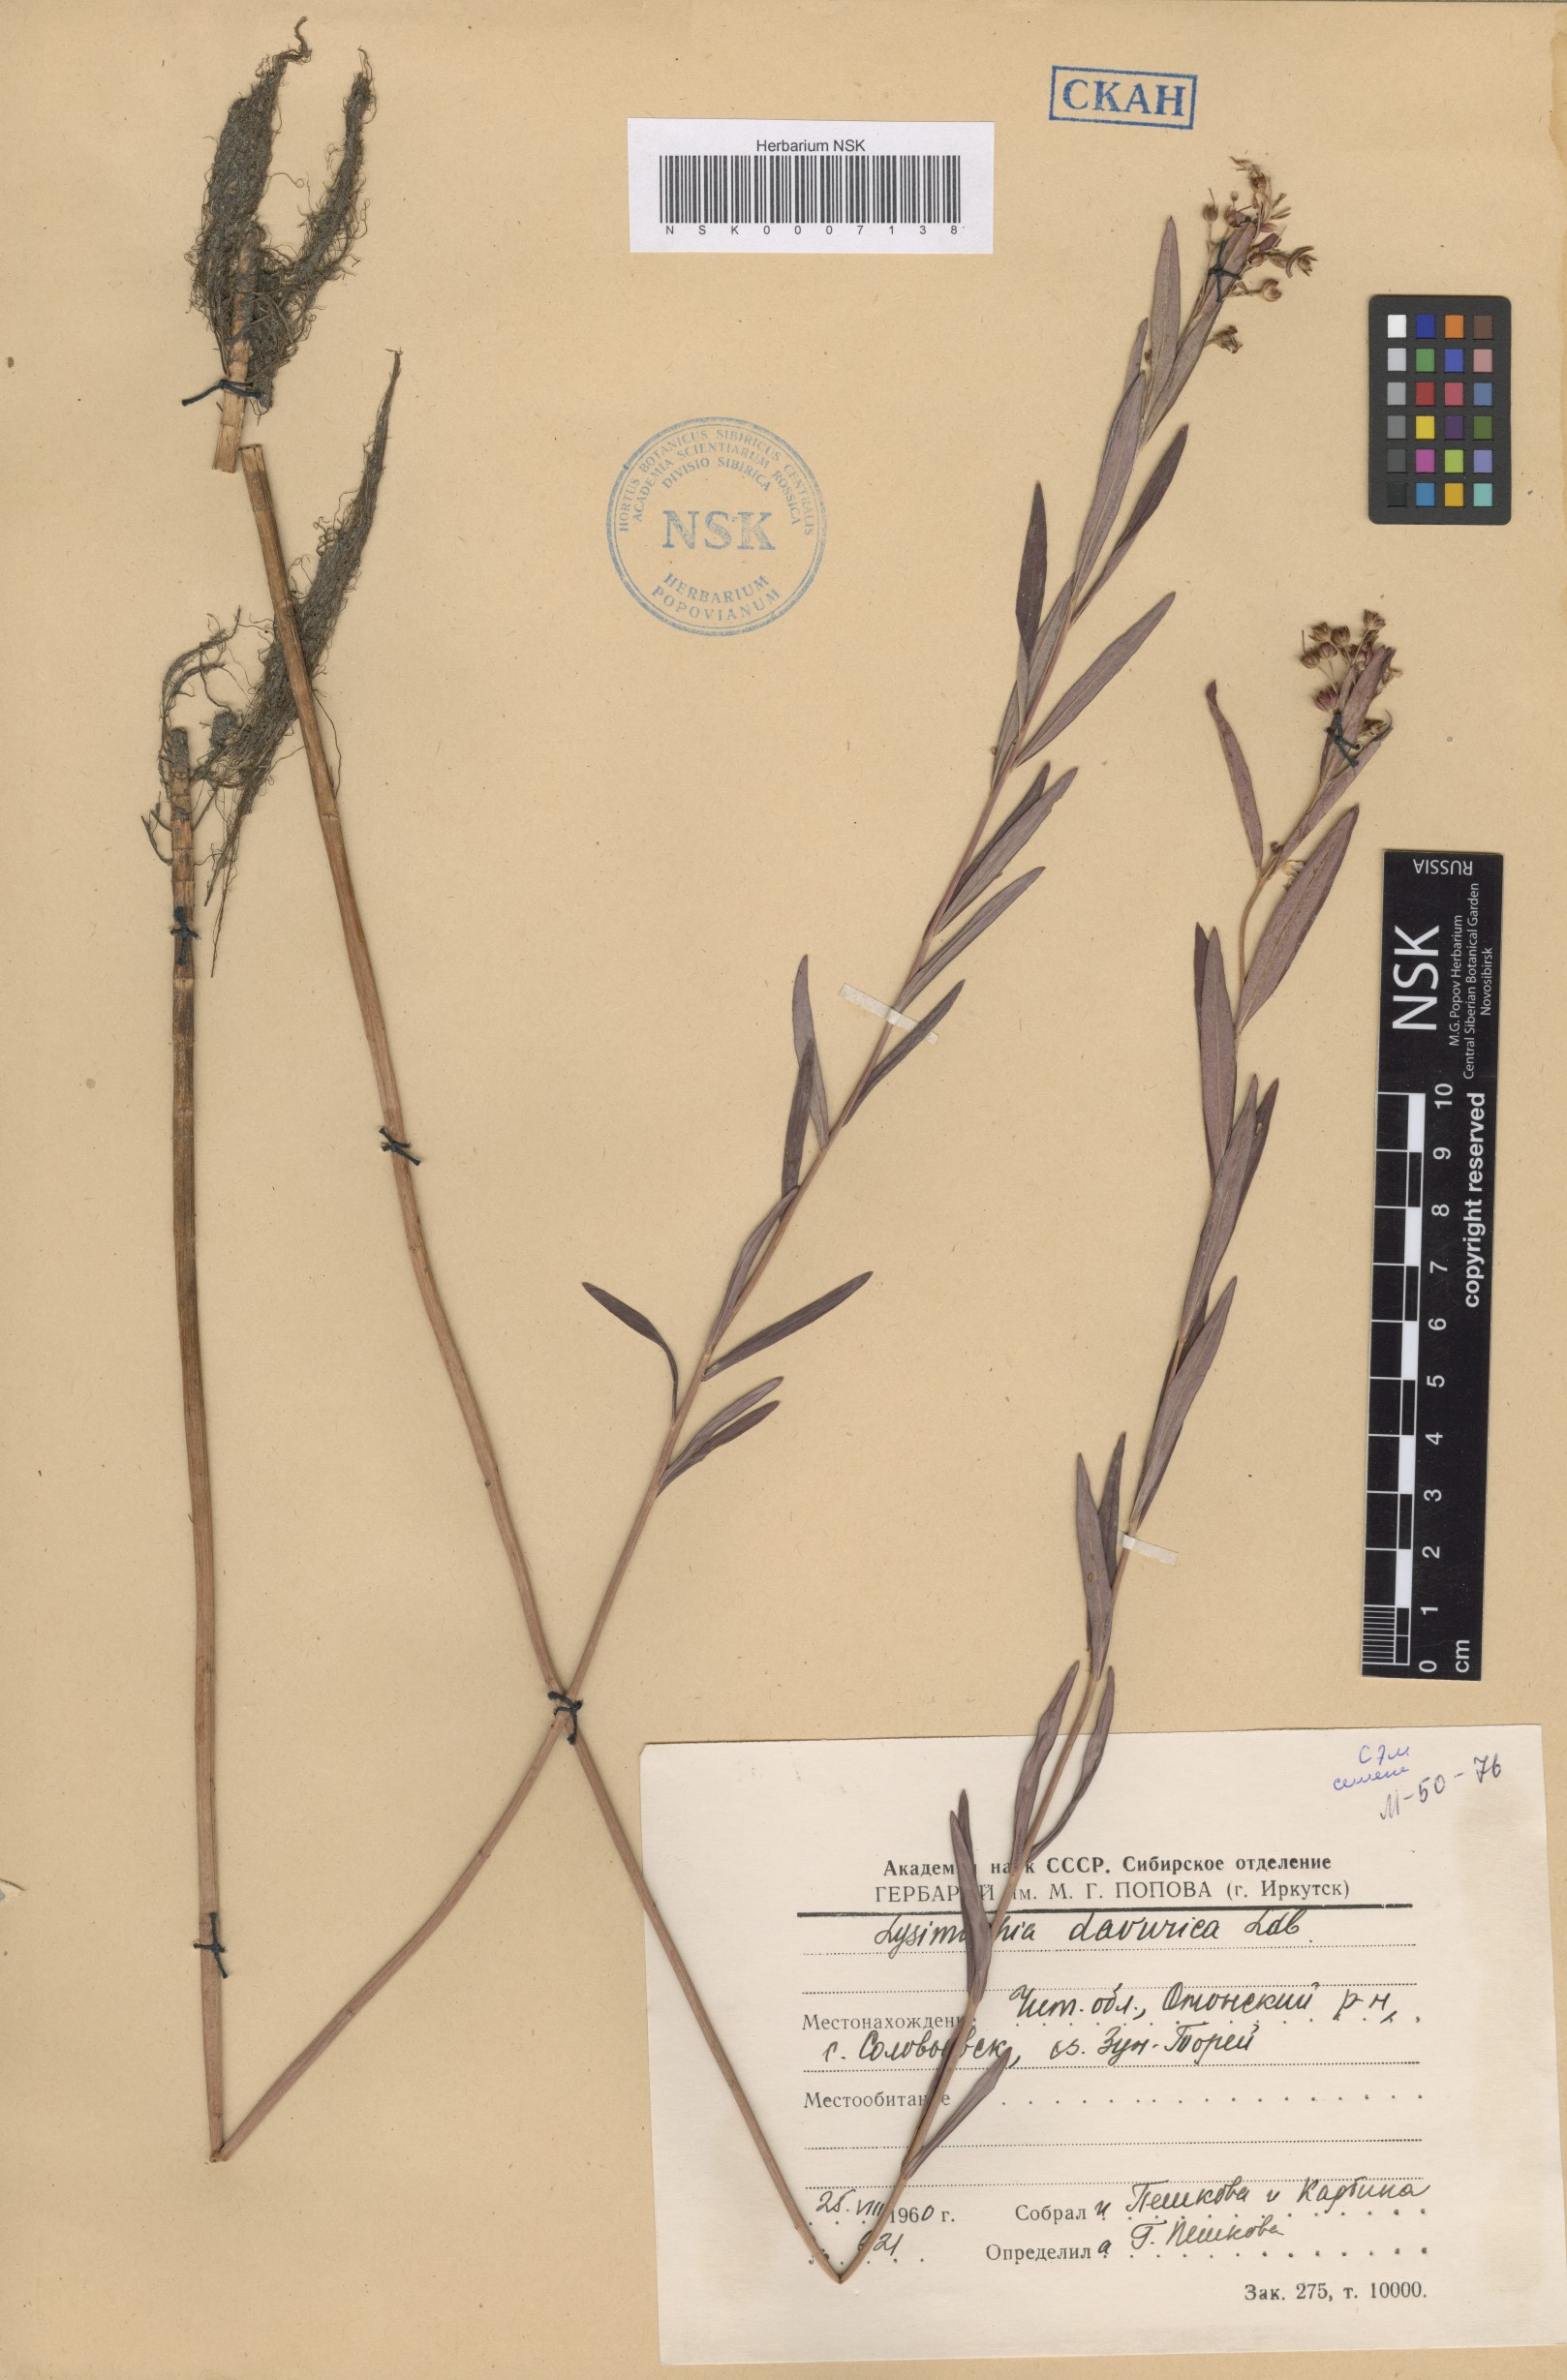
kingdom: Plantae
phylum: Tracheophyta
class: Magnoliopsida
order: Ericales
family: Primulaceae
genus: Lysimachia
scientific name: Lysimachia davurica
